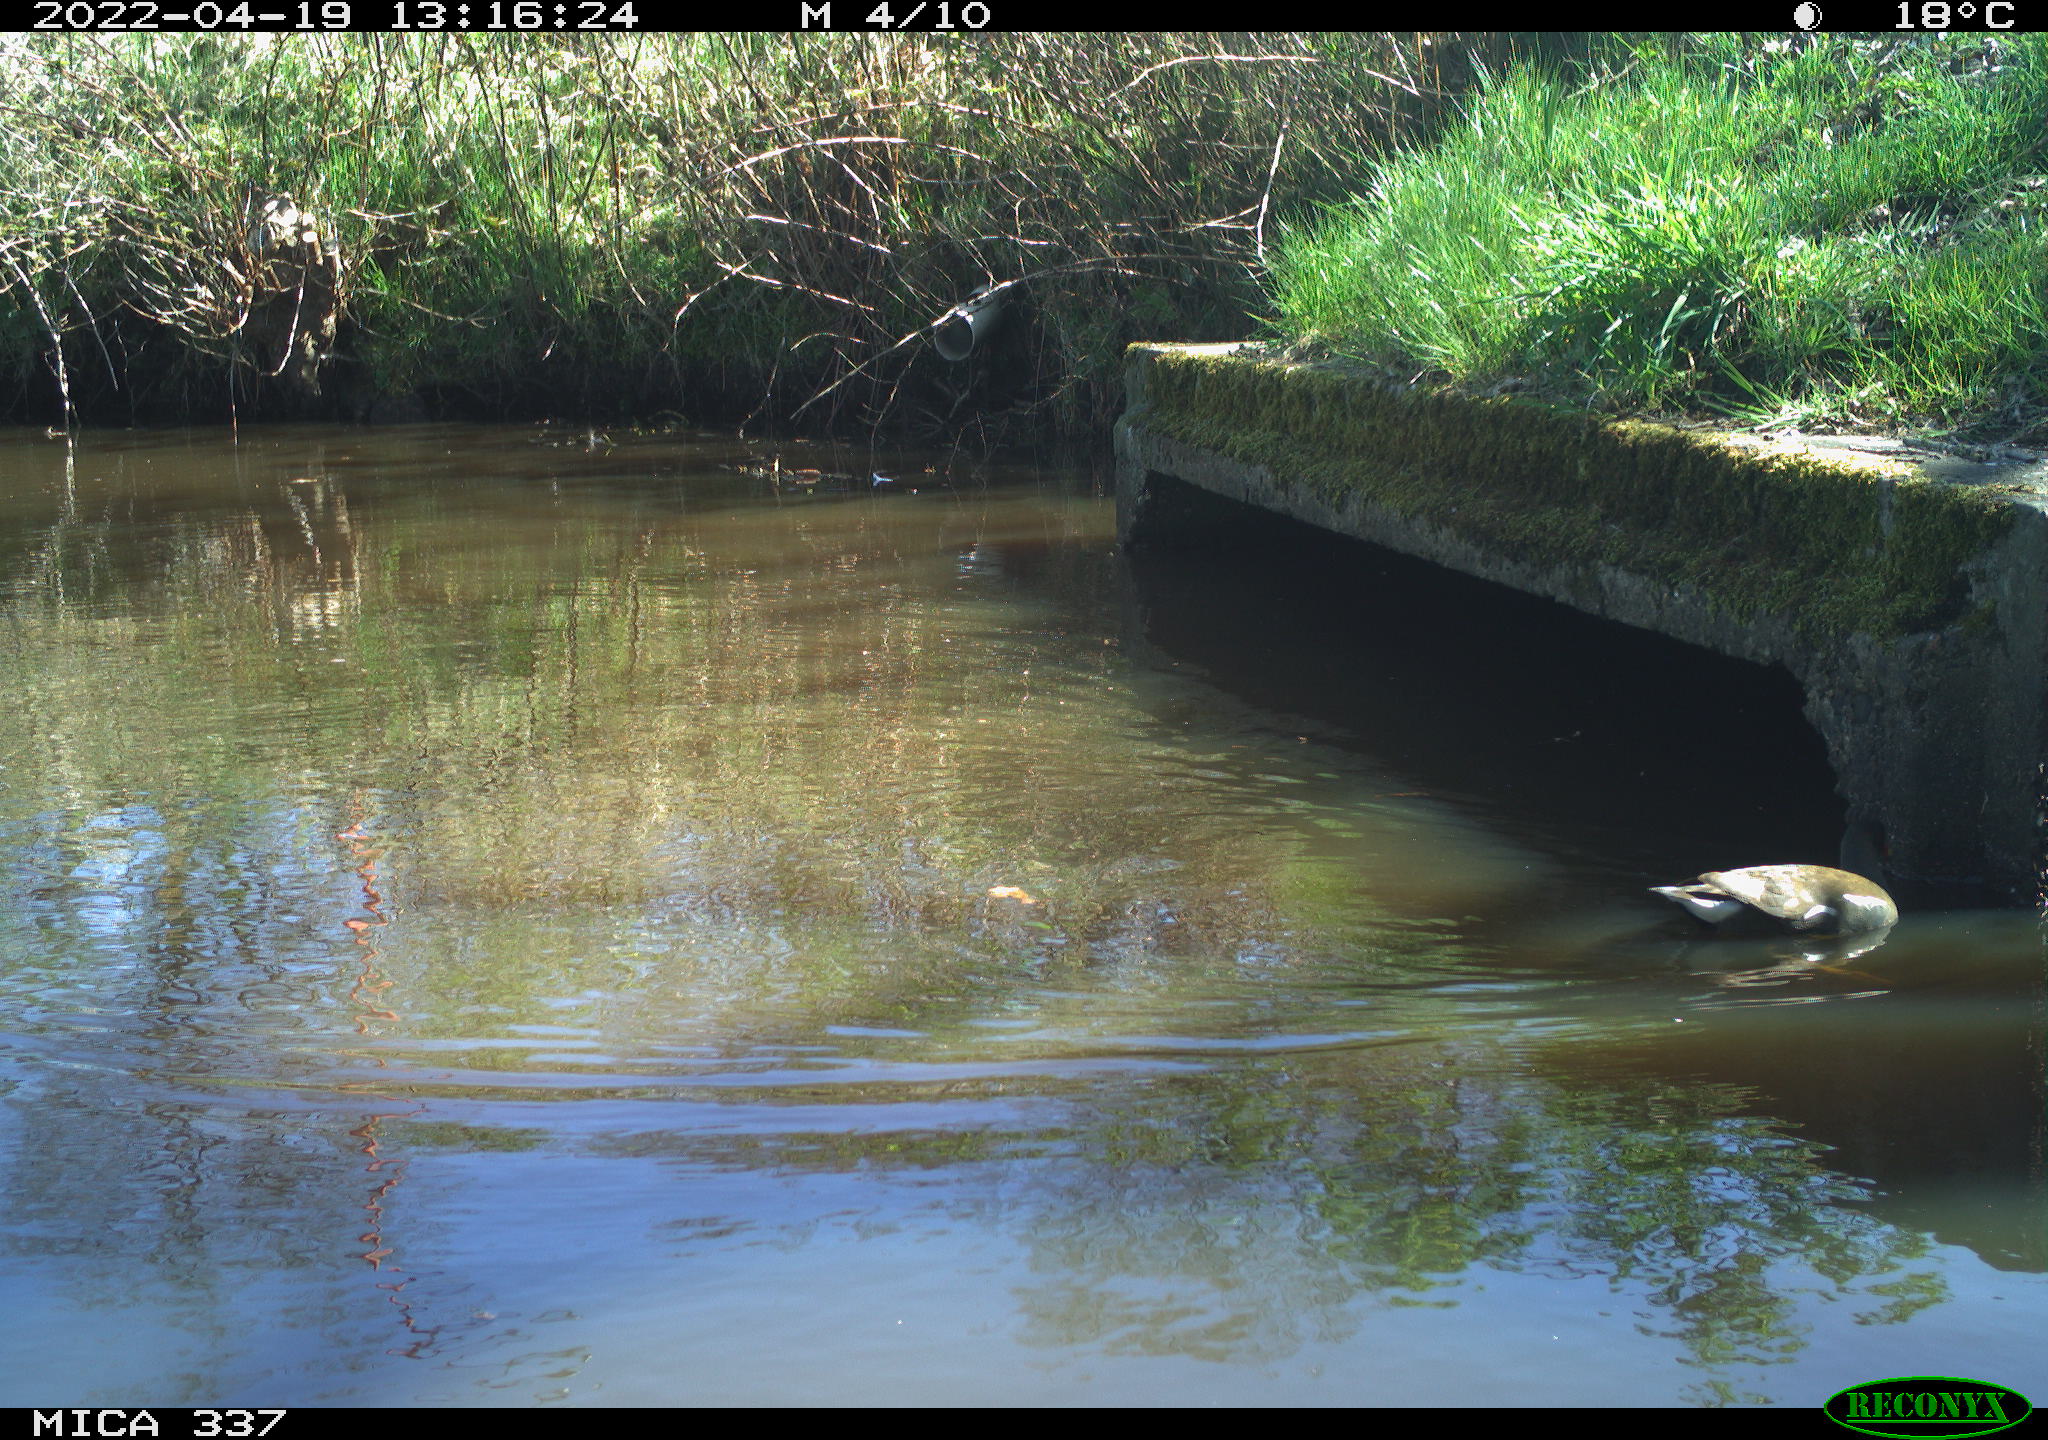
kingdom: Animalia
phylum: Chordata
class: Aves
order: Gruiformes
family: Rallidae
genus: Gallinula
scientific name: Gallinula chloropus
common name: Common moorhen
